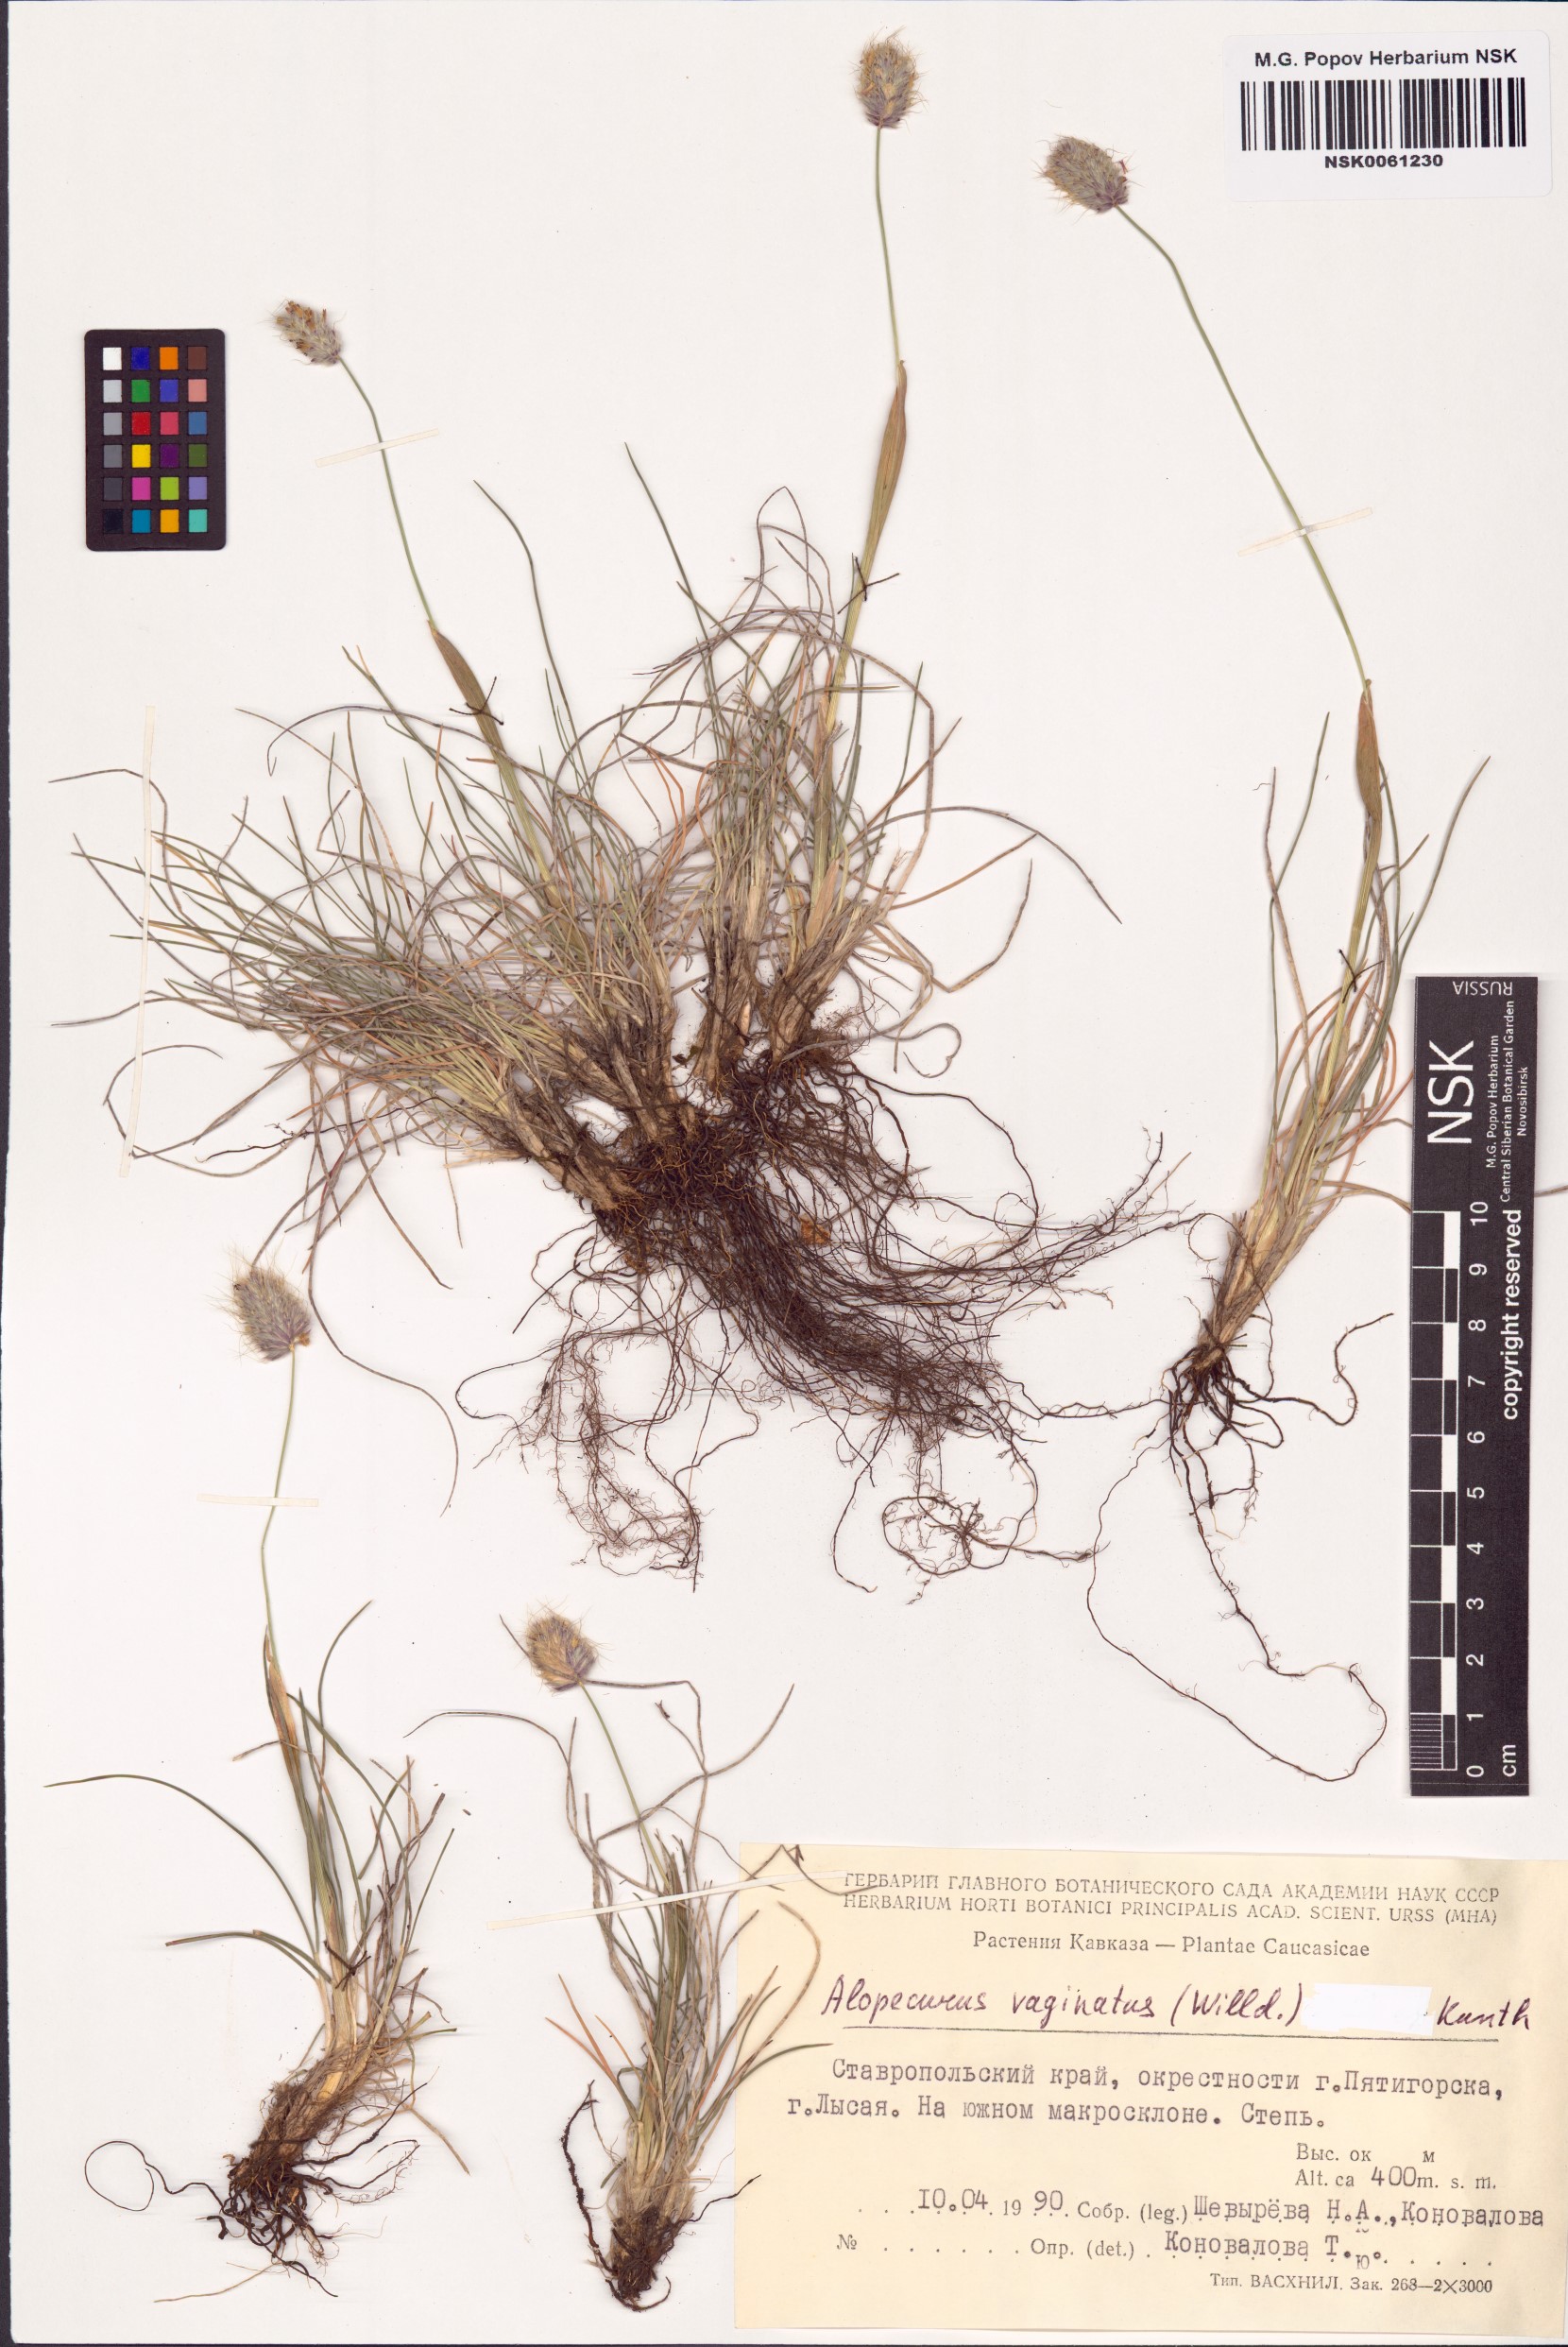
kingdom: Plantae
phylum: Tracheophyta
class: Liliopsida
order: Poales
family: Poaceae
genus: Alopecurus
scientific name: Alopecurus vaginatus
